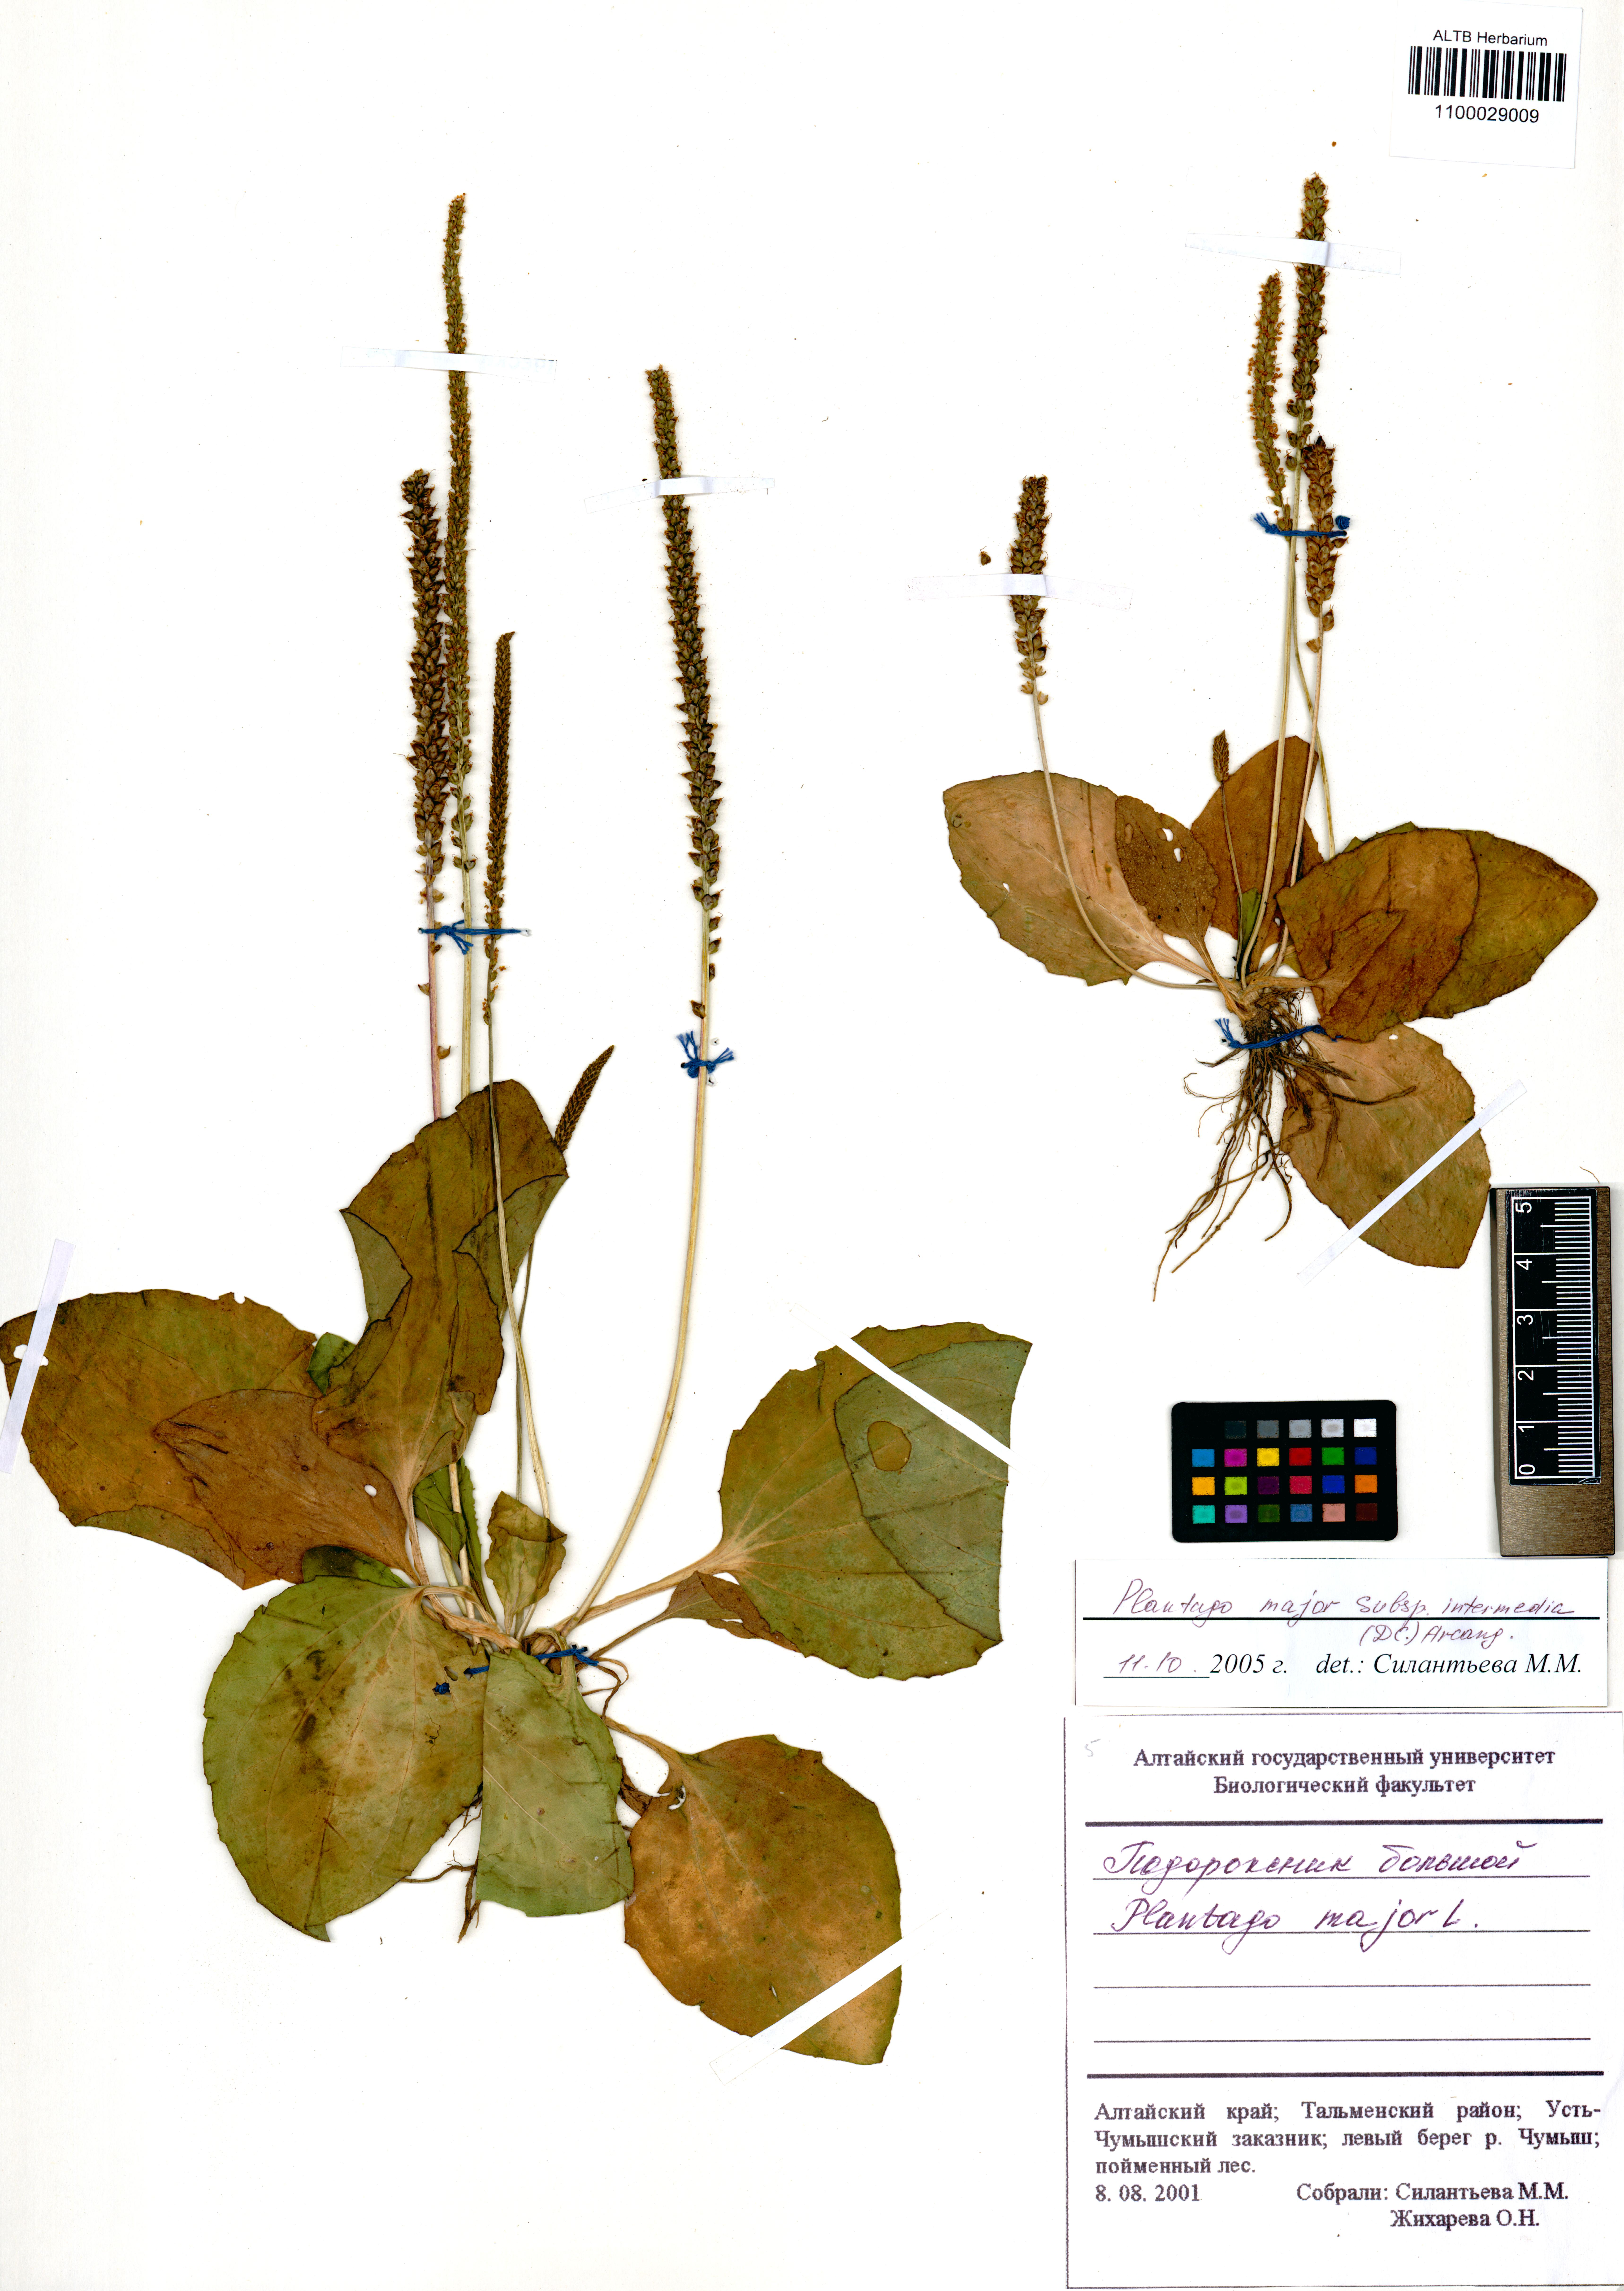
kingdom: Plantae
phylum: Tracheophyta
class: Magnoliopsida
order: Lamiales
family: Plantaginaceae
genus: Plantago
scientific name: Plantago uliginosa
